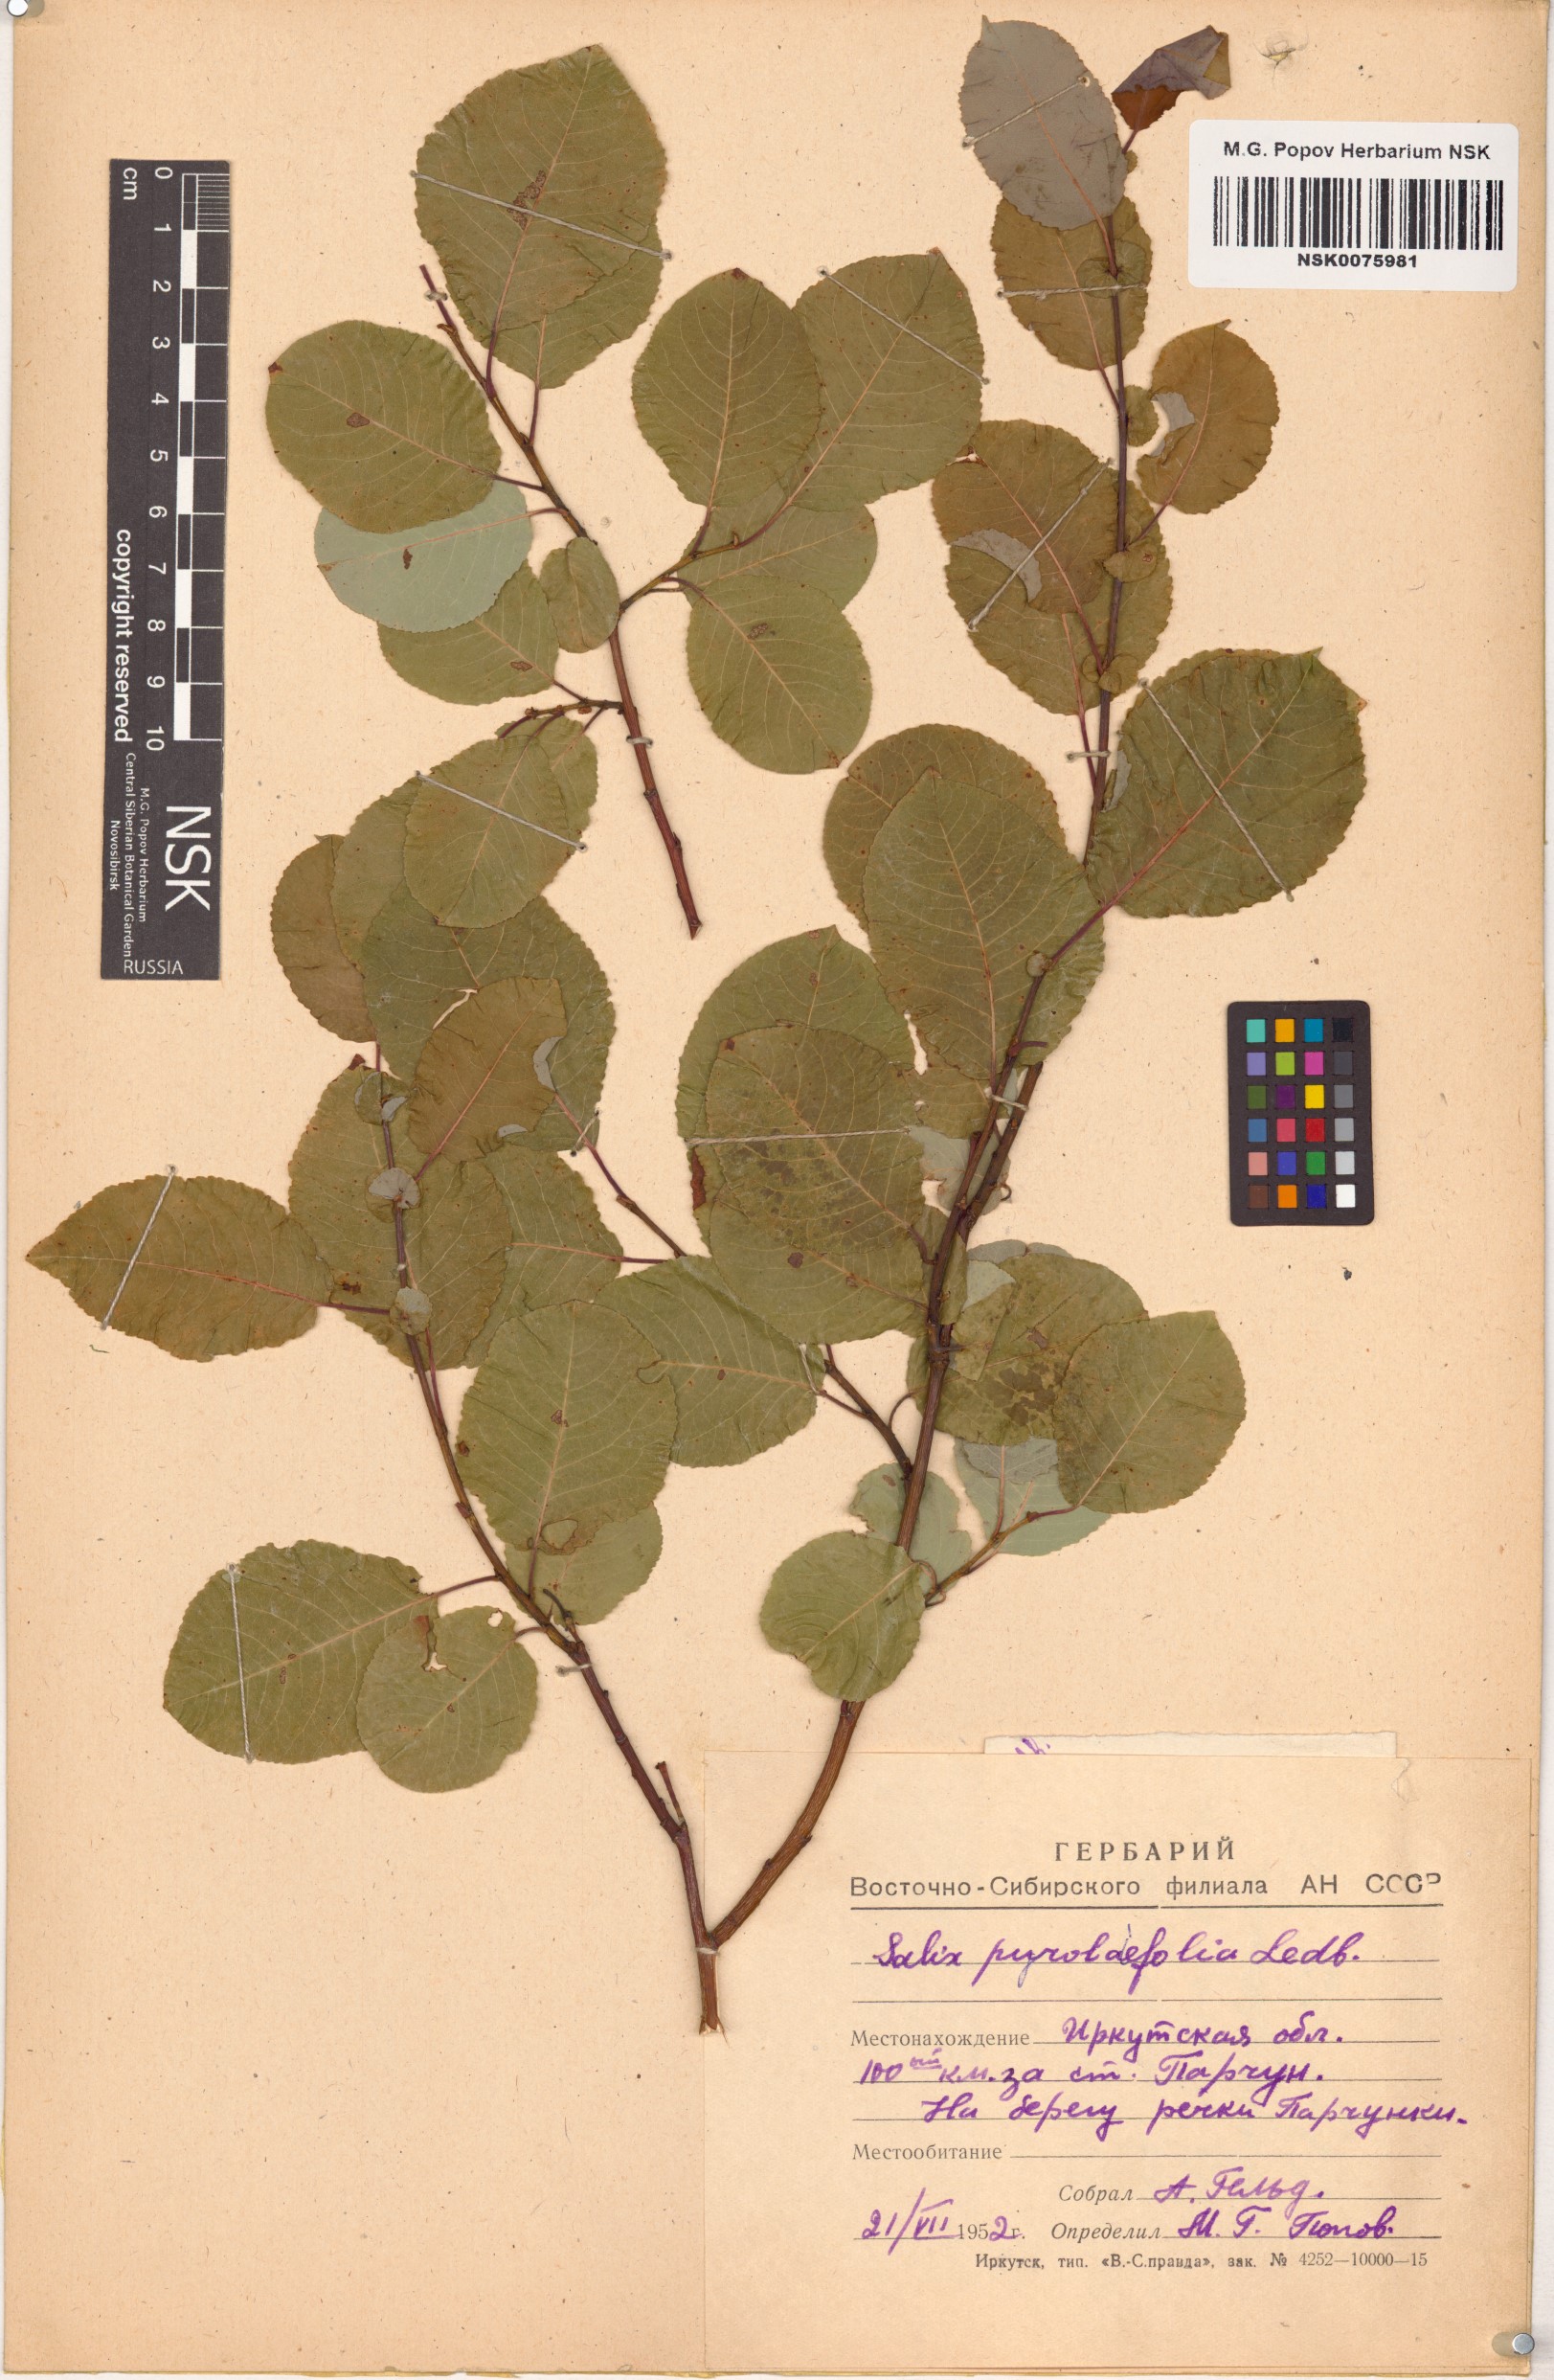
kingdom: Plantae
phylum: Tracheophyta
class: Magnoliopsida
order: Malpighiales
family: Salicaceae
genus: Salix
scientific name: Salix pyrolifolia
